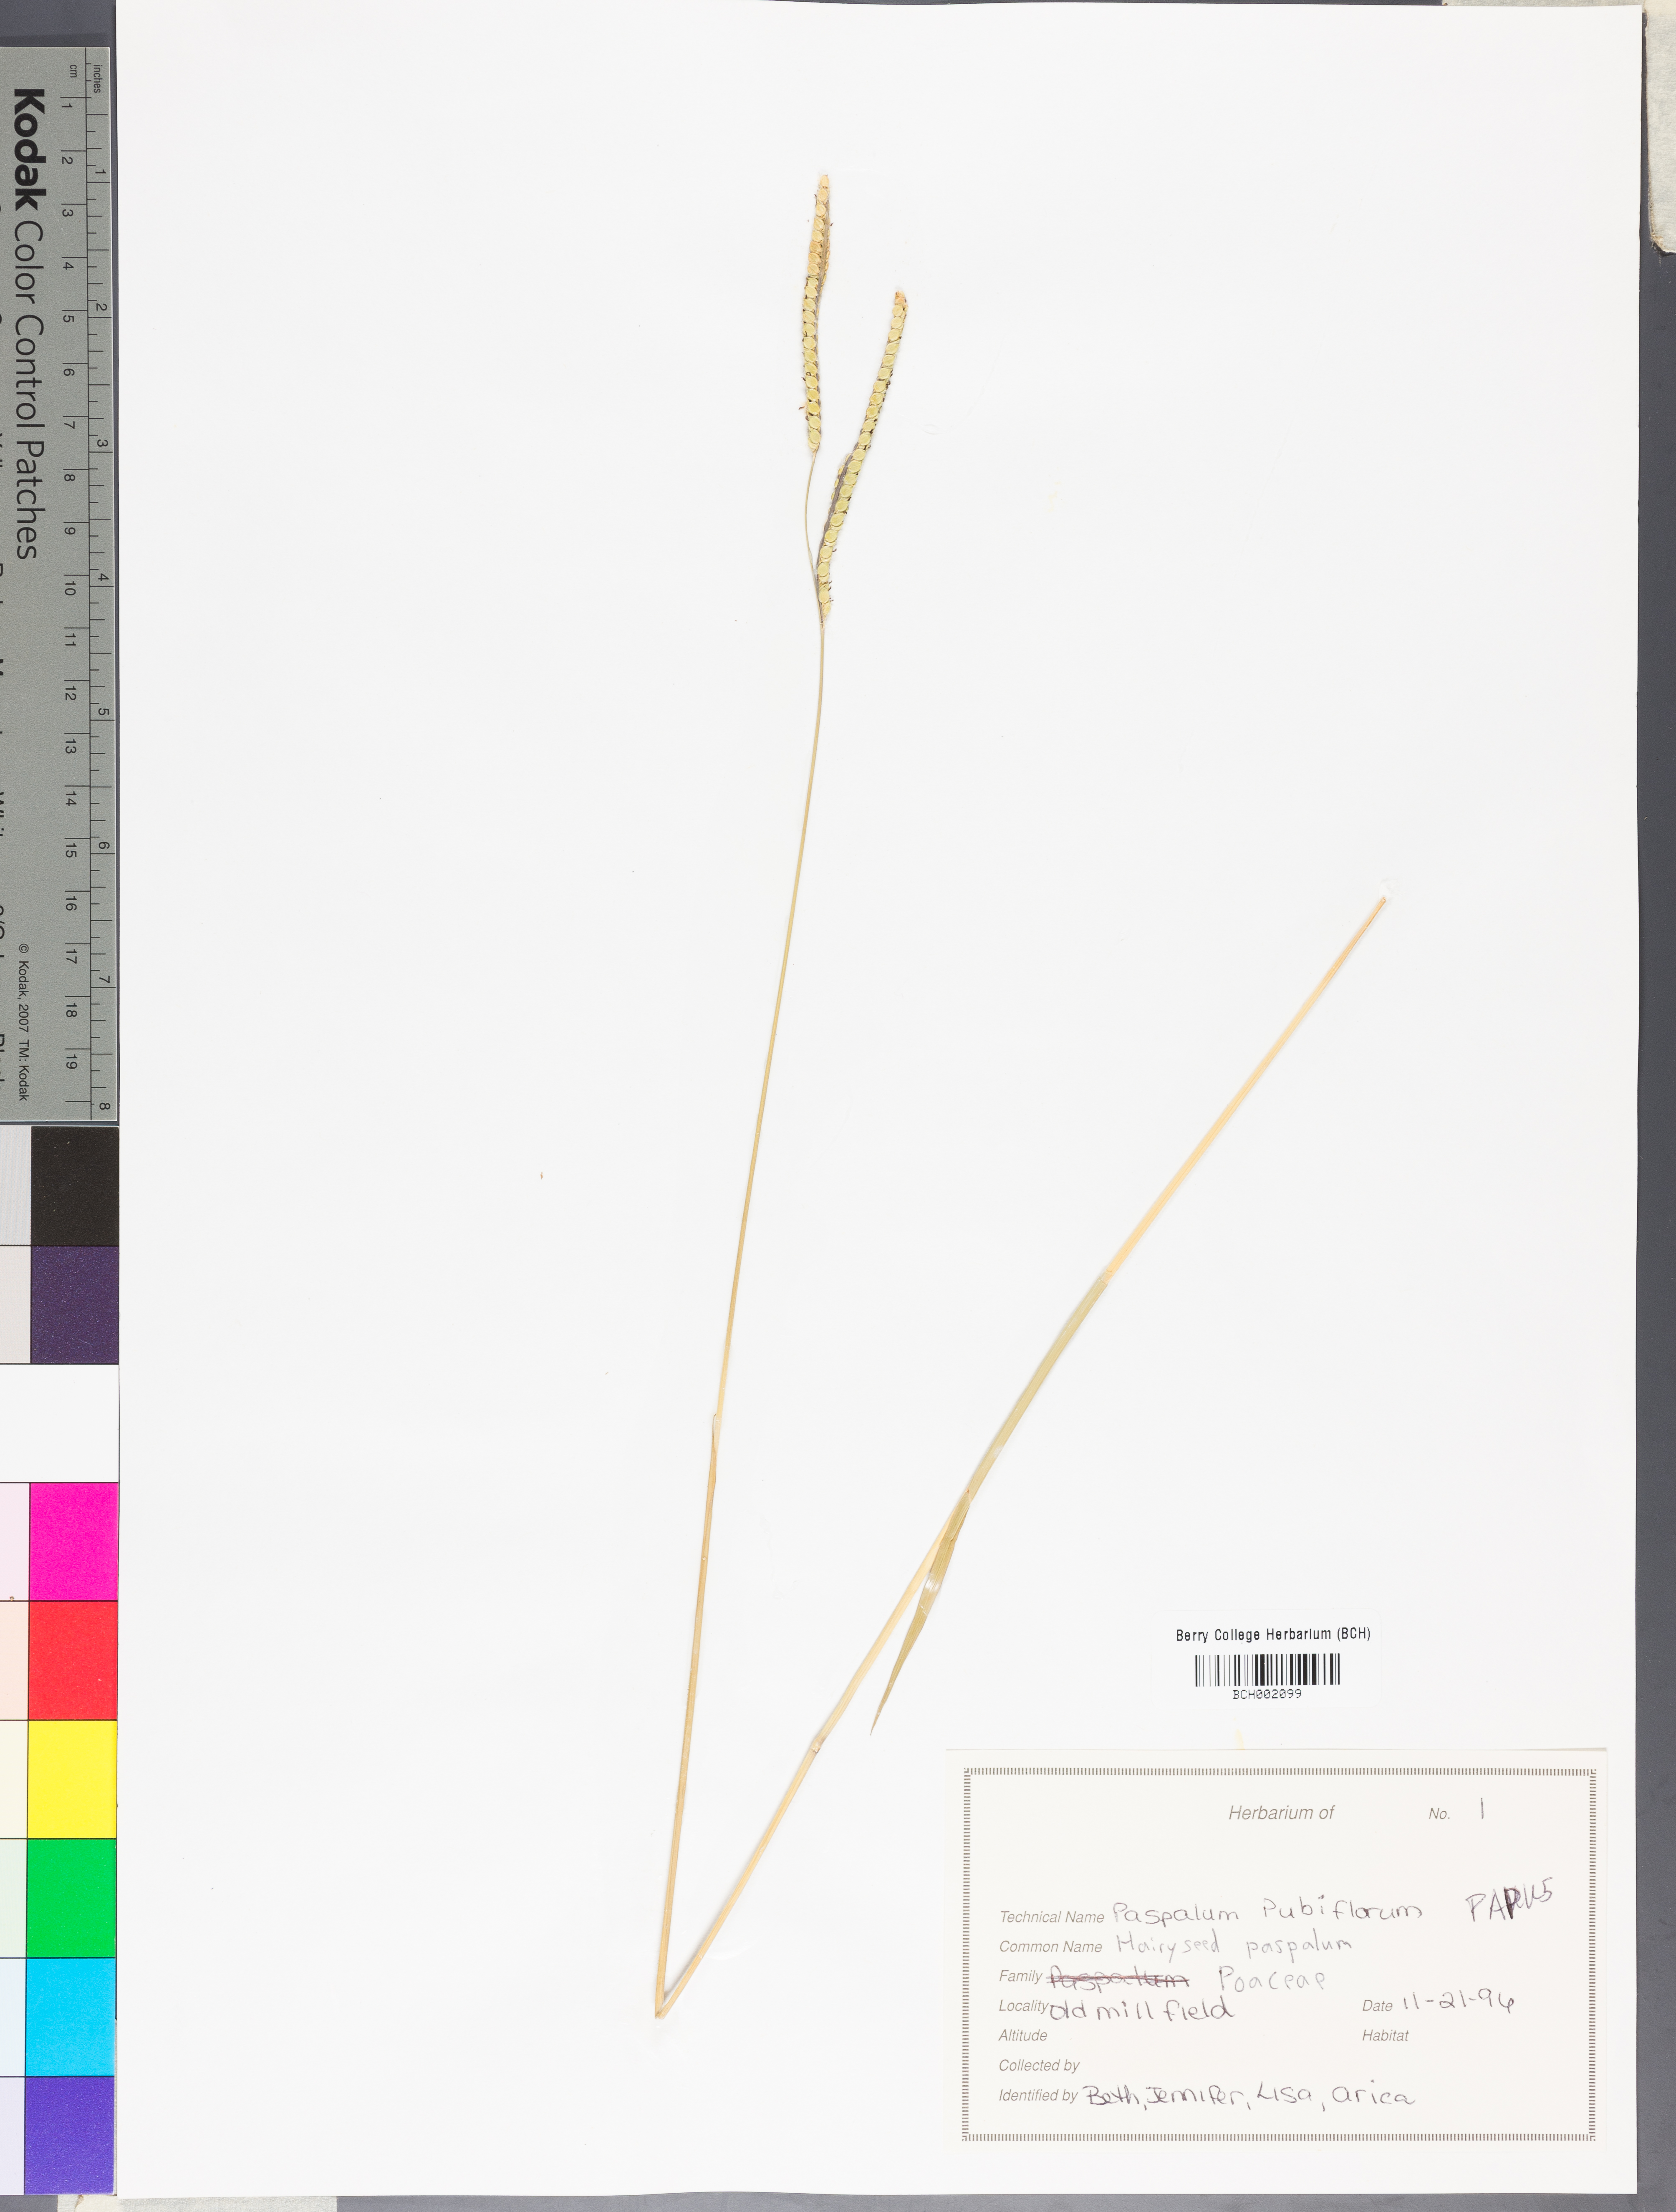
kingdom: Plantae
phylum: Tracheophyta
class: Liliopsida
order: Poales
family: Poaceae
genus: Paspalum
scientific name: Paspalum pubiflorum
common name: Hairy-seed paspalum
